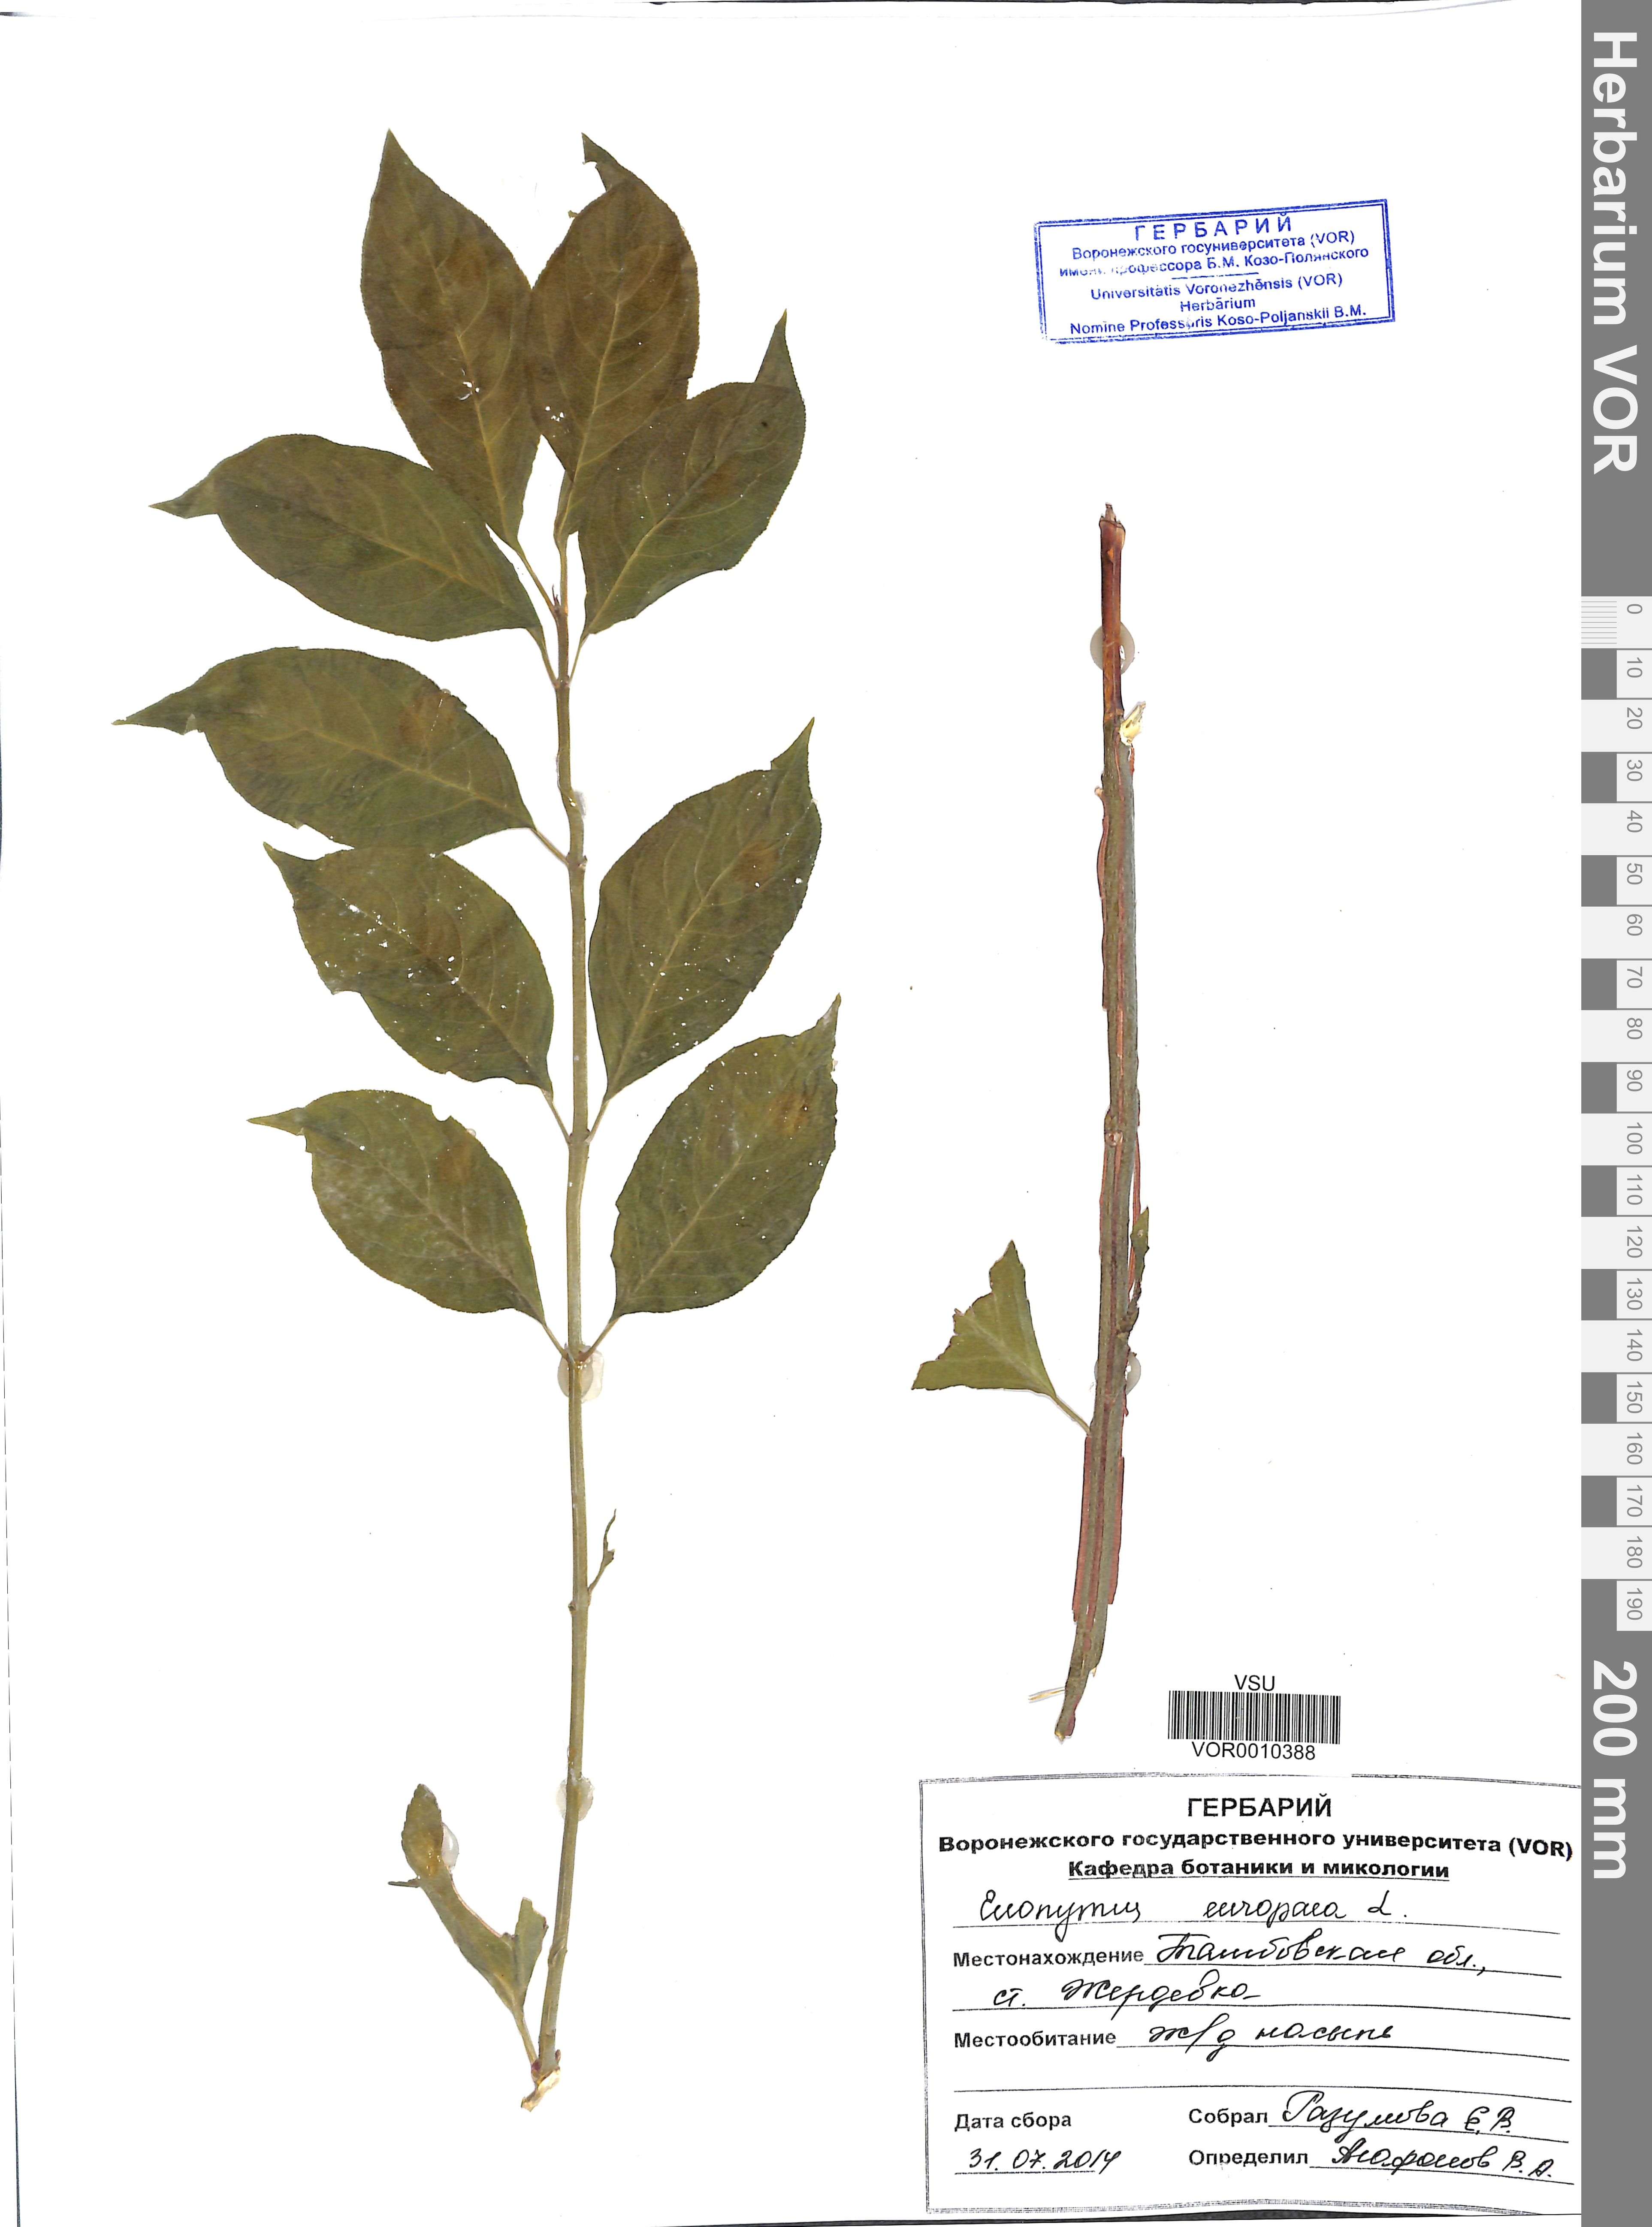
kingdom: Plantae
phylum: Tracheophyta
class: Magnoliopsida
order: Celastrales
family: Celastraceae
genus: Euonymus
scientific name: Euonymus europaeus
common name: Spindle
